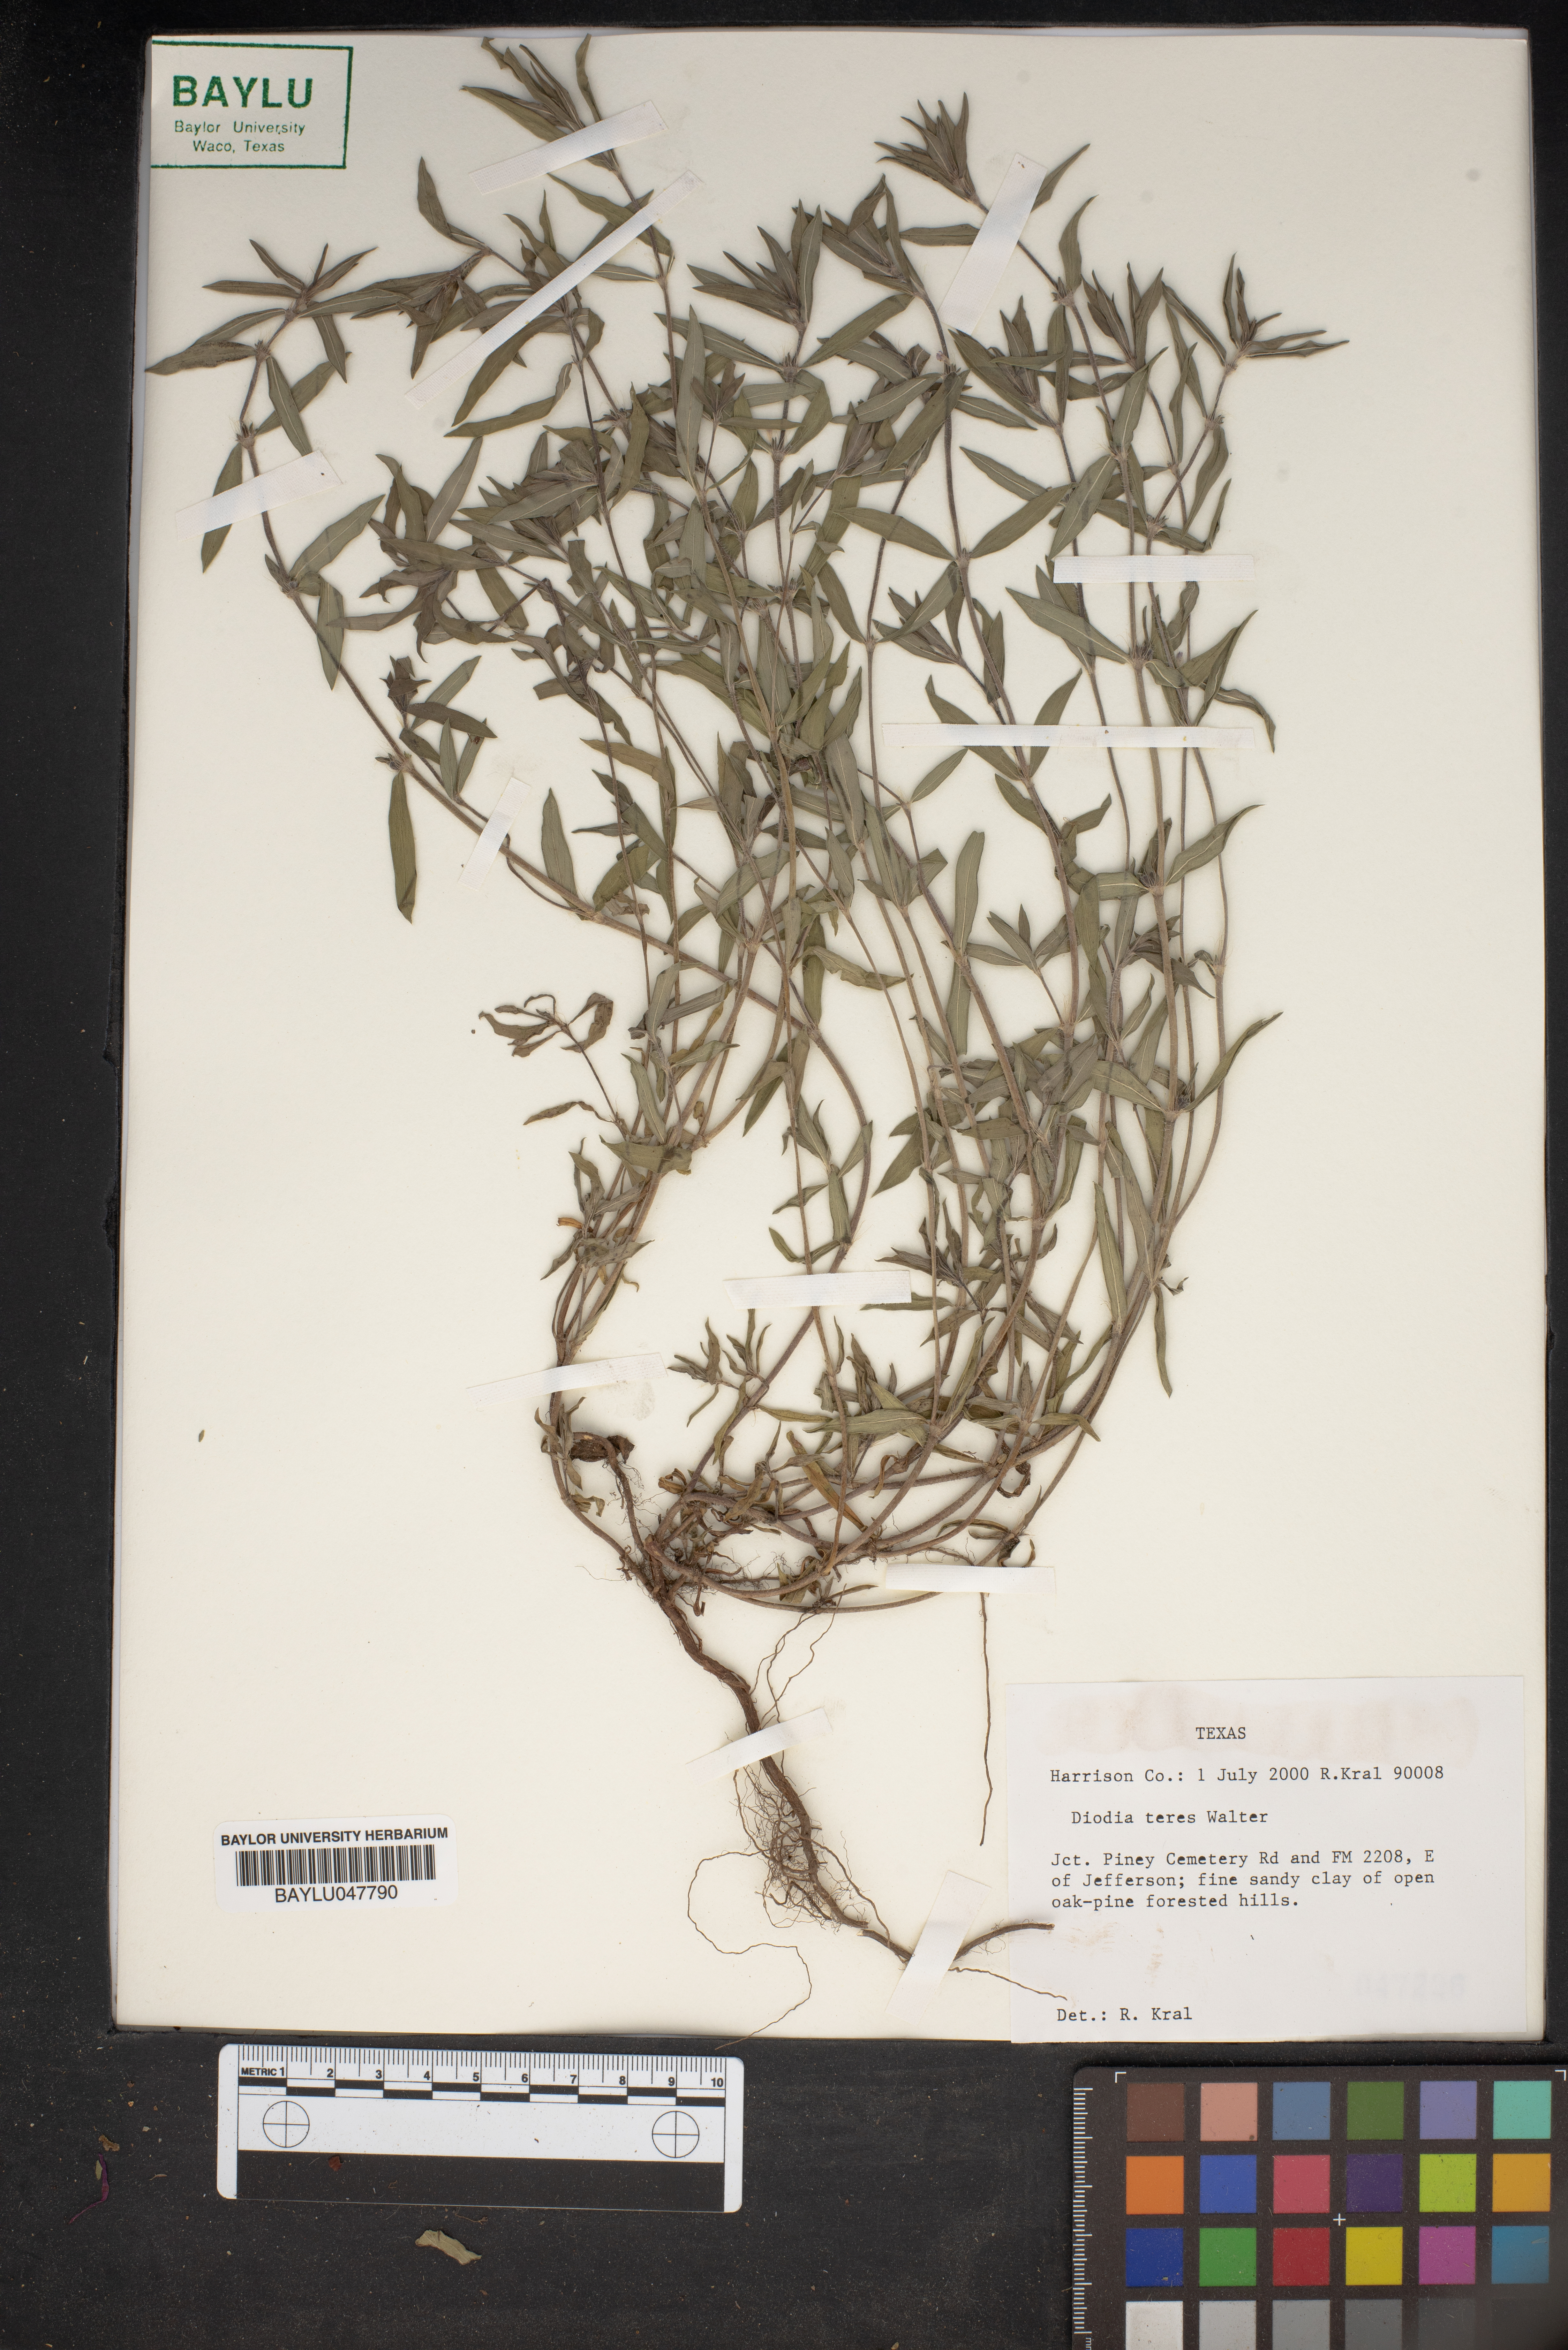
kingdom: Plantae
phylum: Tracheophyta
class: Magnoliopsida
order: Gentianales
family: Rubiaceae
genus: Hexasepalum
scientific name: Hexasepalum teres
